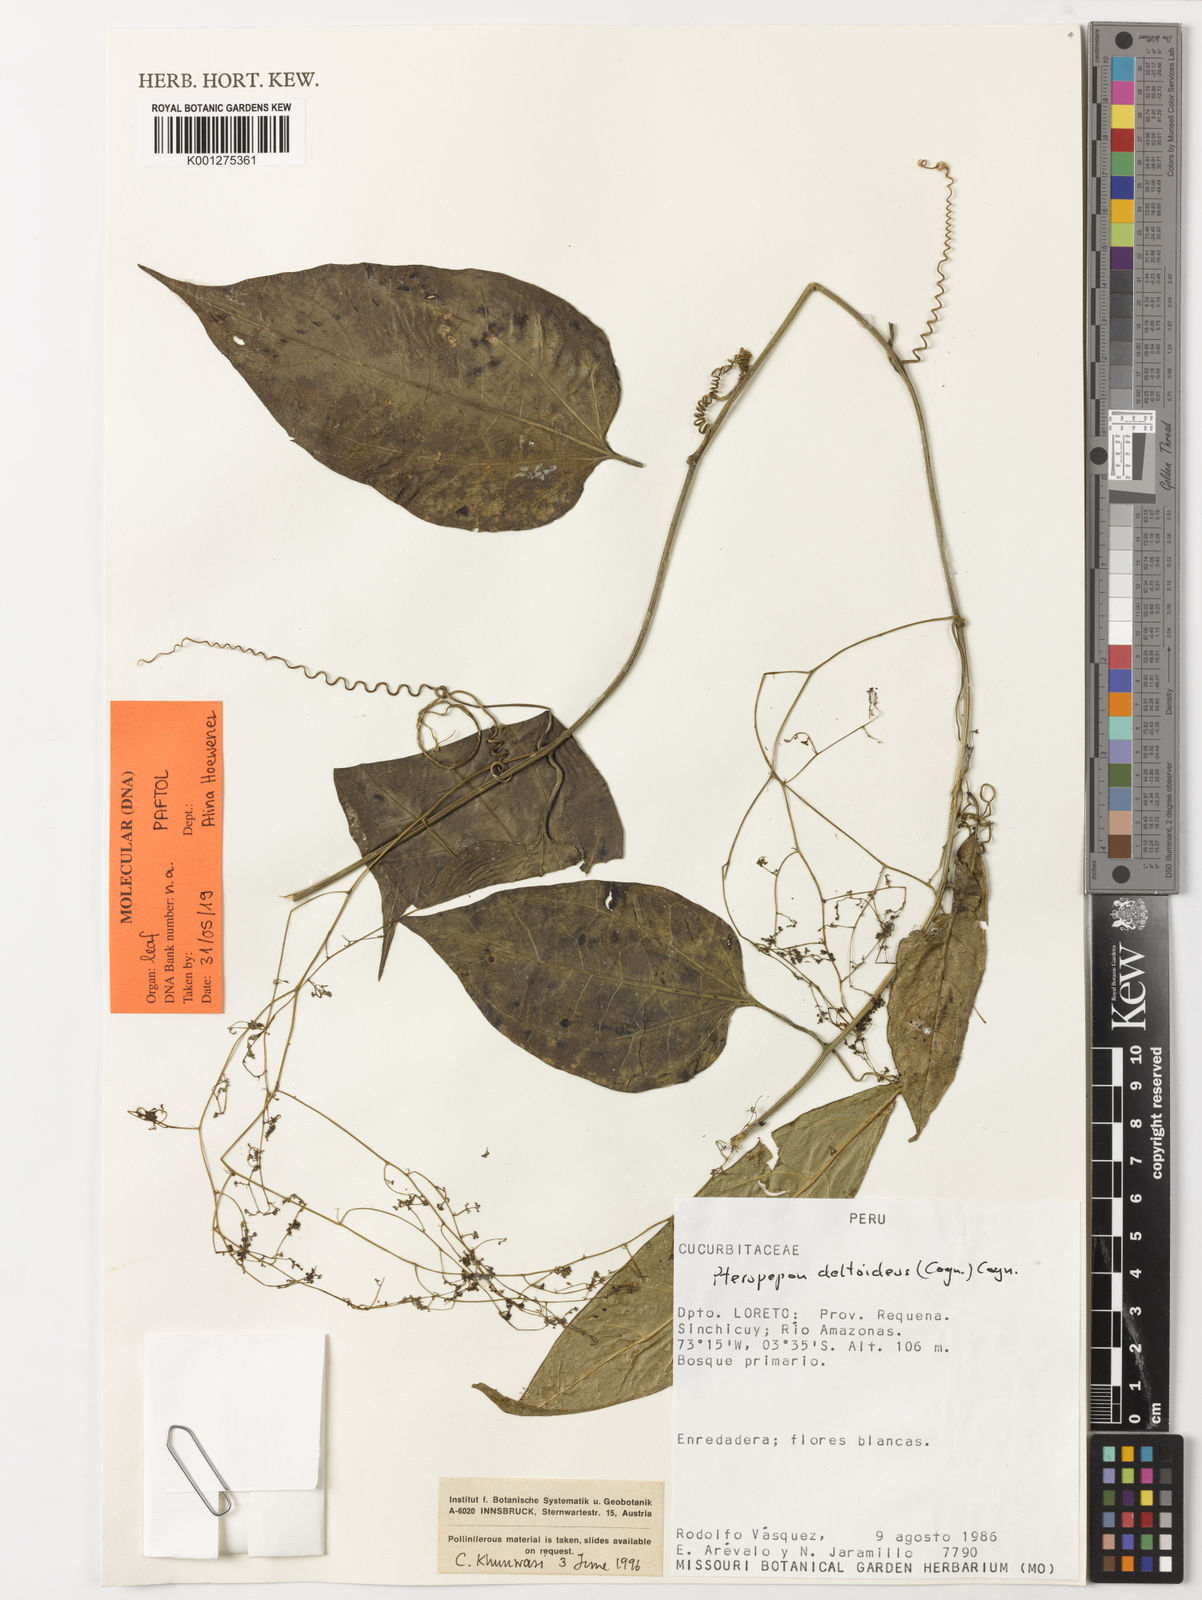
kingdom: Plantae
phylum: Tracheophyta
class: Magnoliopsida
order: Cucurbitales
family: Cucurbitaceae
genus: Pteropepon
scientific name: Pteropepon deltoideus
